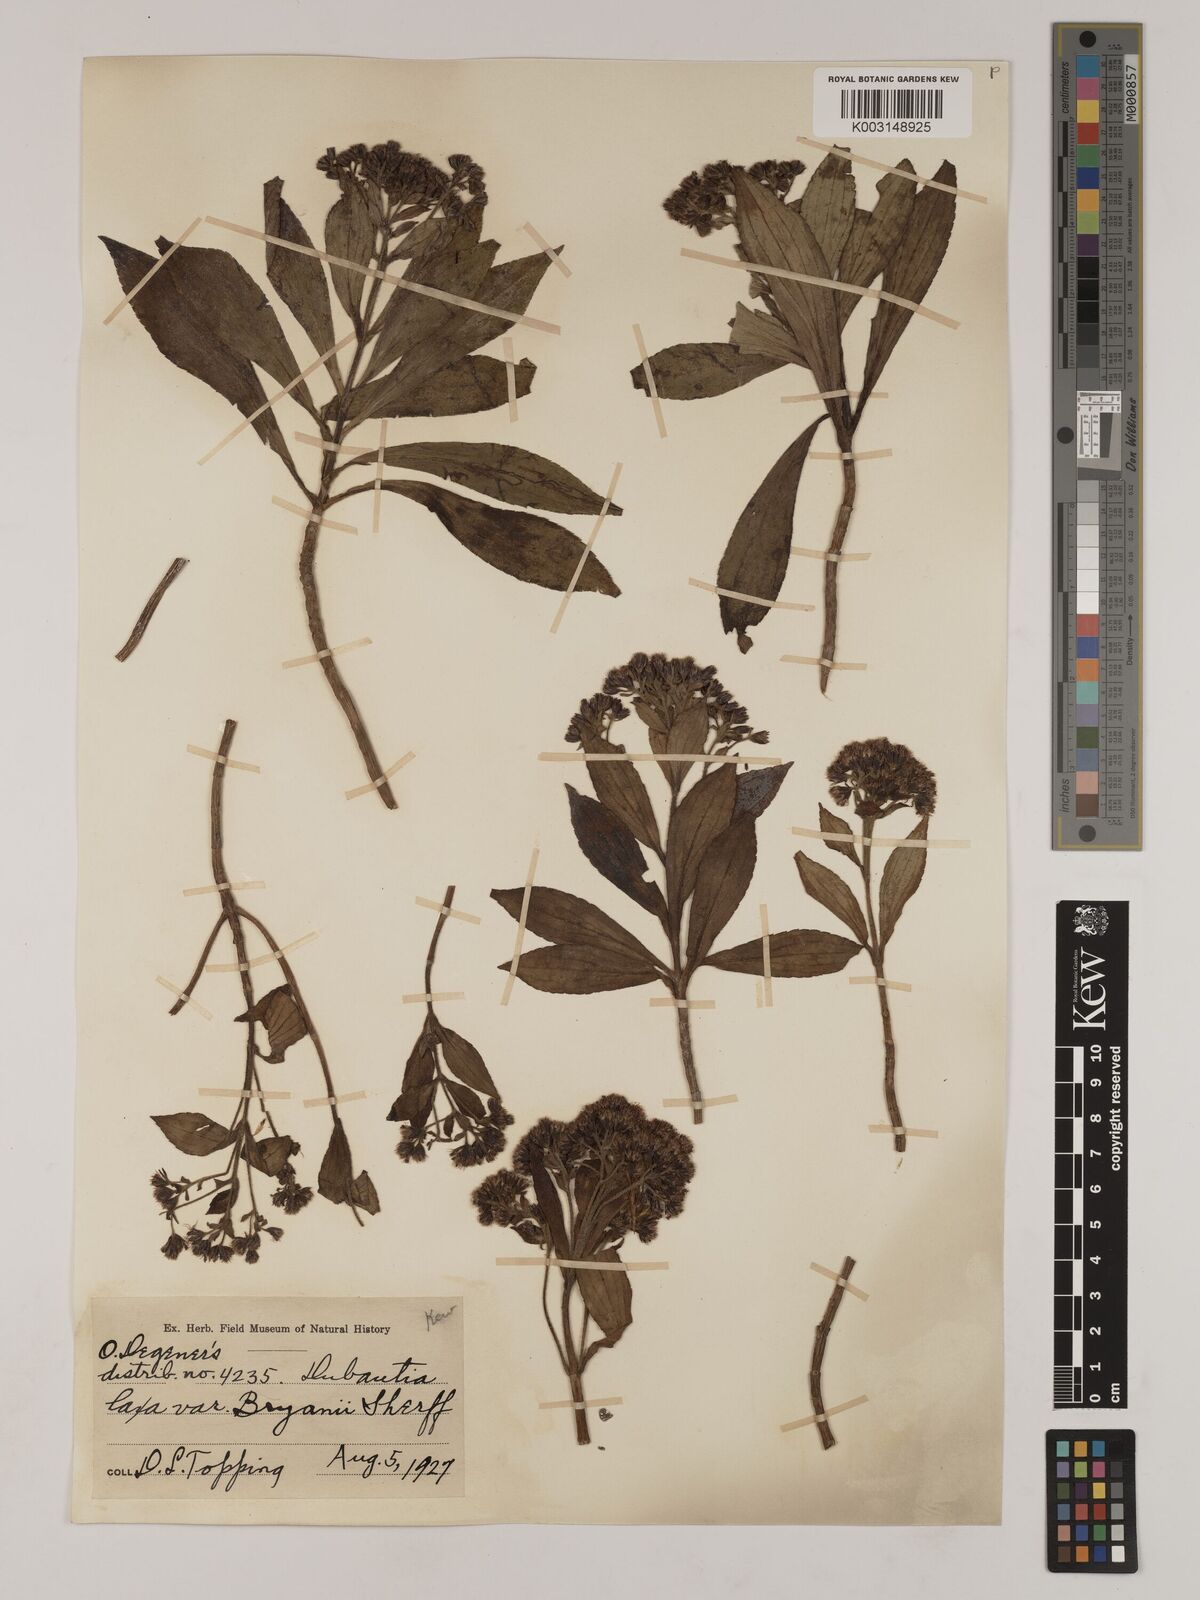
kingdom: Plantae
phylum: Tracheophyta
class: Magnoliopsida
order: Asterales
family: Asteraceae
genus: Dubautia
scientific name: Dubautia laxa
